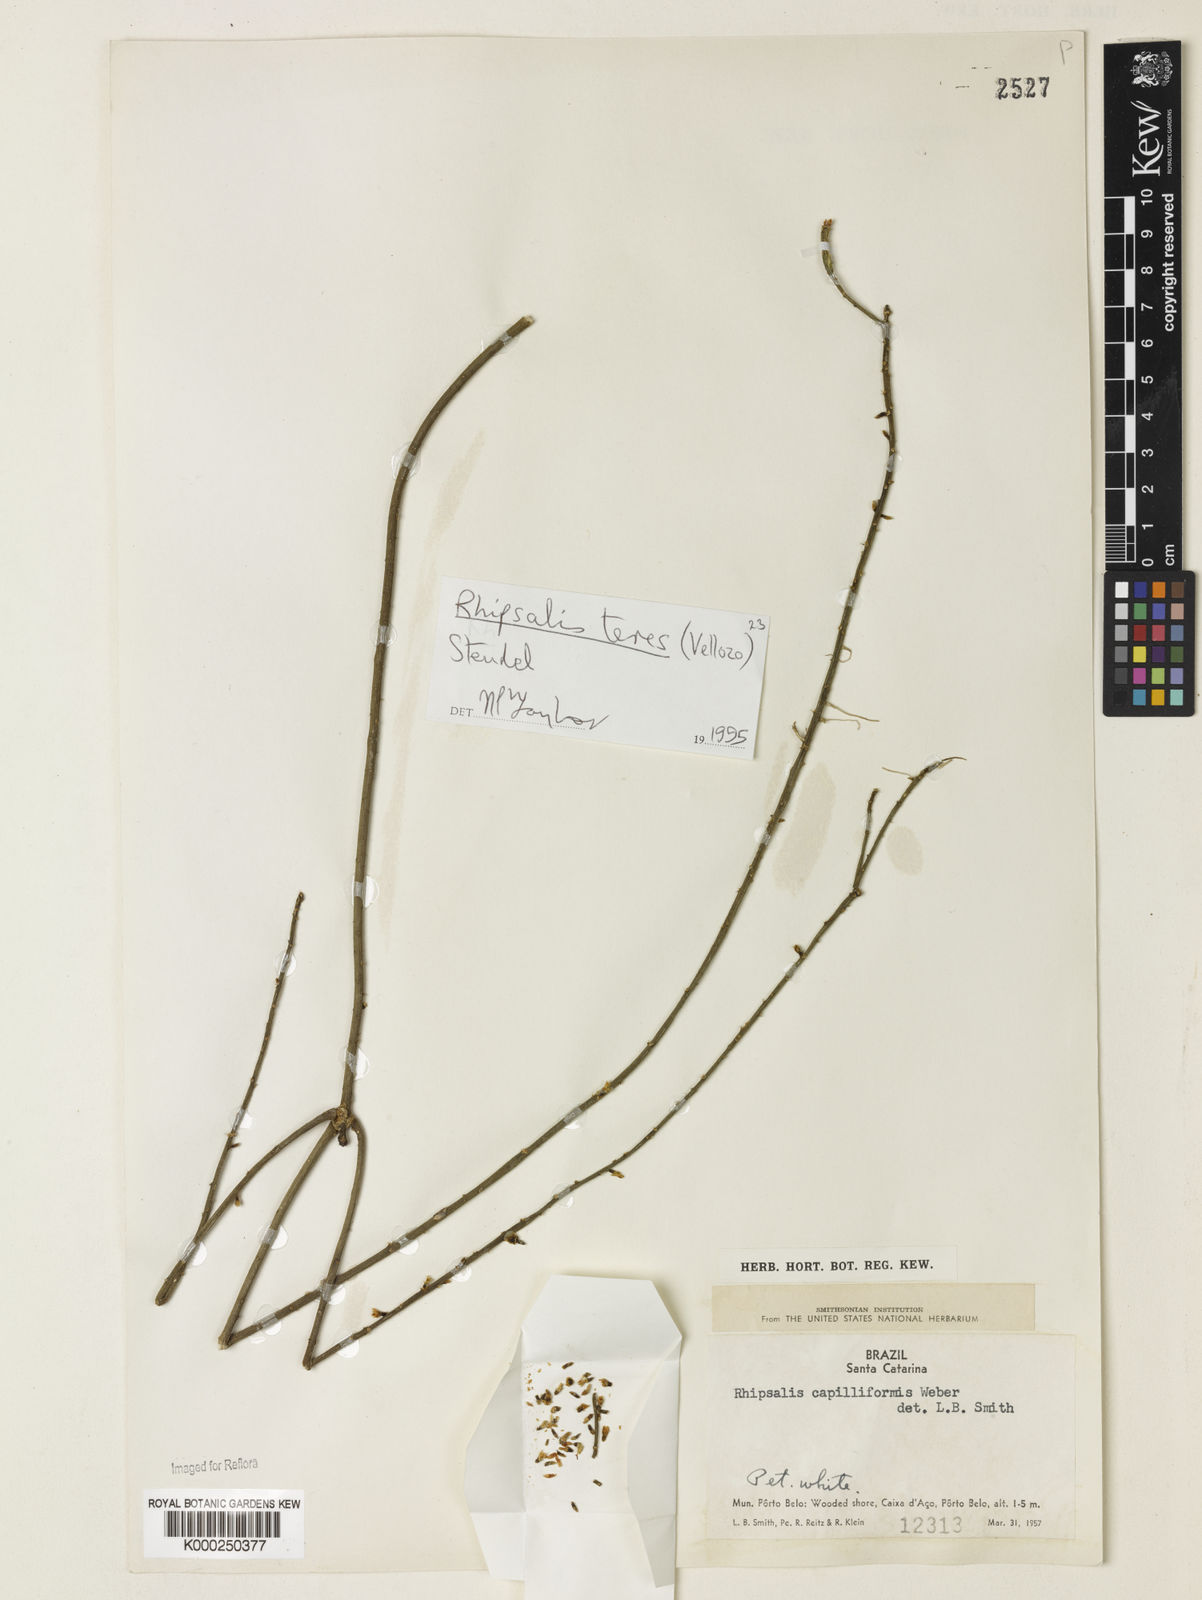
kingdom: Plantae
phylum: Tracheophyta
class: Magnoliopsida
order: Caryophyllales
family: Cactaceae
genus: Rhipsalis
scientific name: Rhipsalis teres
